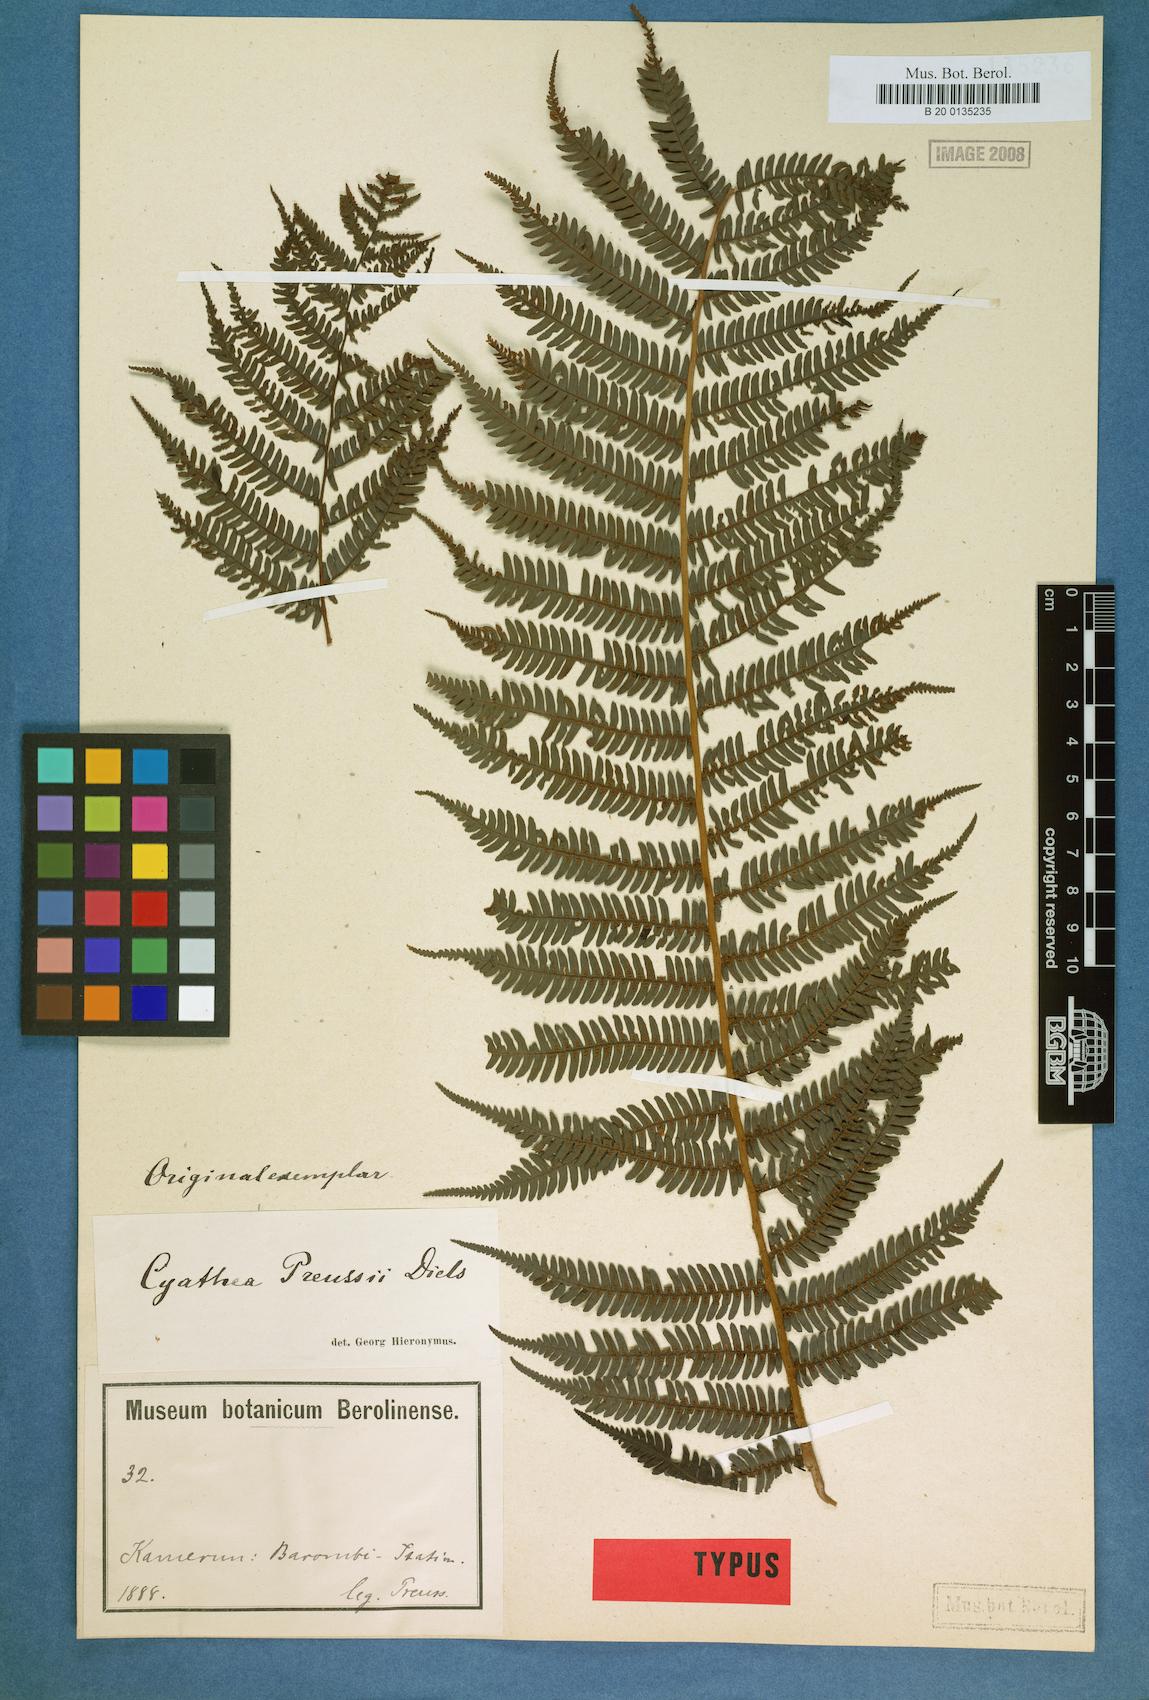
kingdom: Plantae
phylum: Tracheophyta
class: Polypodiopsida
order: Cyatheales
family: Cyatheaceae
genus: Alsophila
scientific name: Alsophila manniana
